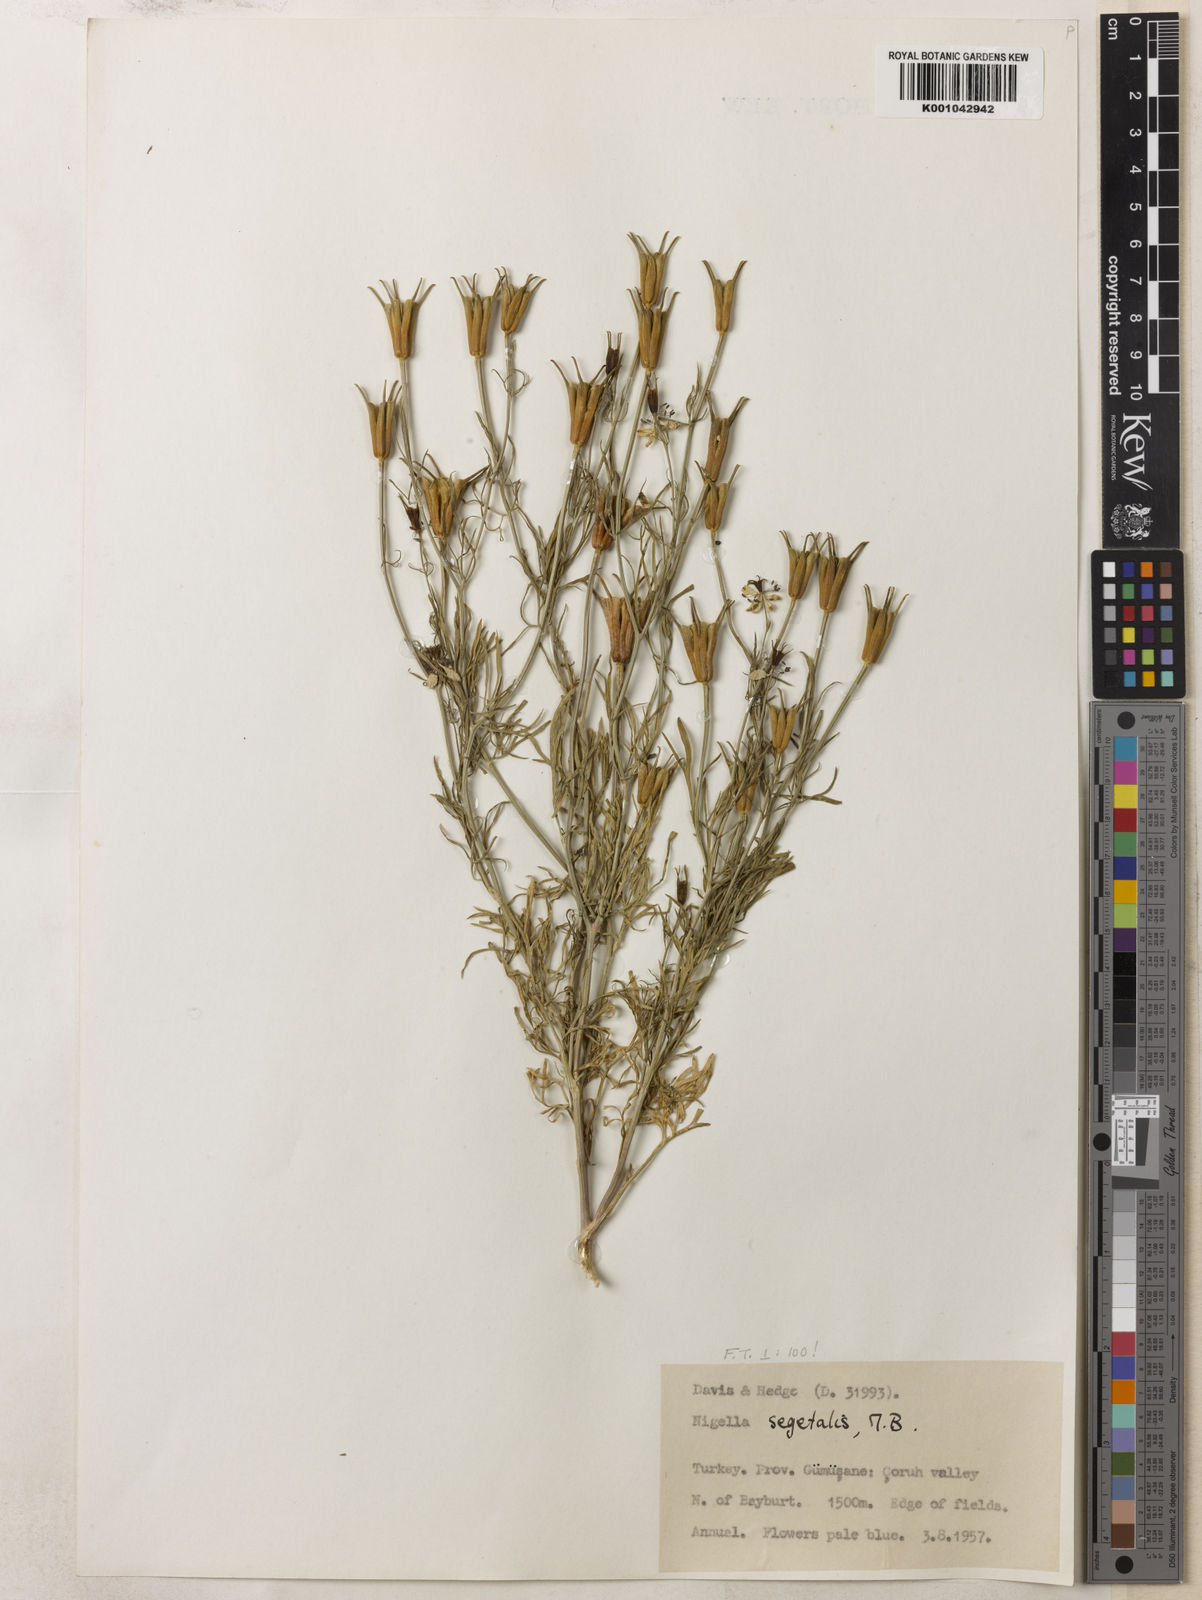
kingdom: Plantae
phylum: Tracheophyta
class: Magnoliopsida
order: Ranunculales
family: Ranunculaceae
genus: Nigella
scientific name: Nigella segetalis
